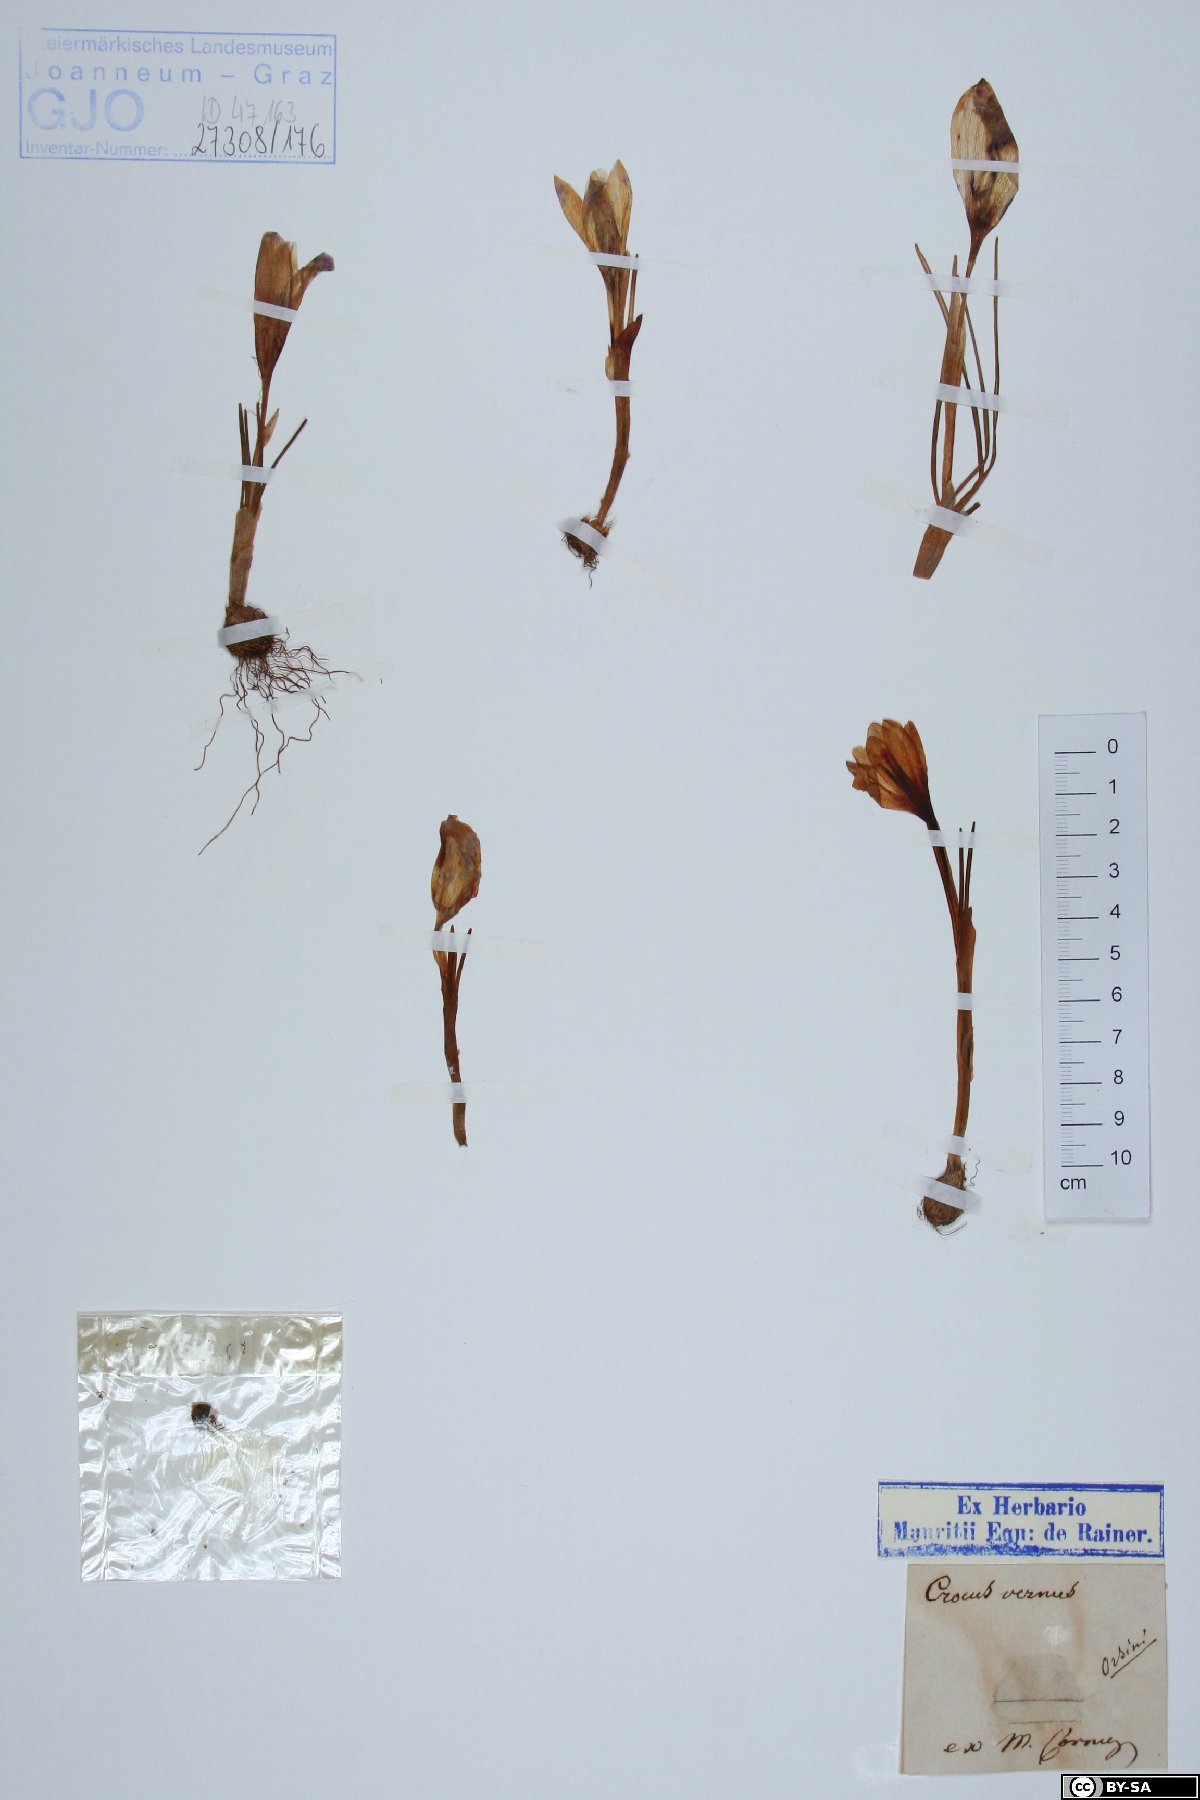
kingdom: Plantae
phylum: Tracheophyta
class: Liliopsida
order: Asparagales
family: Iridaceae
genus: Crocus
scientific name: Crocus vernus
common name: Spring crocus
